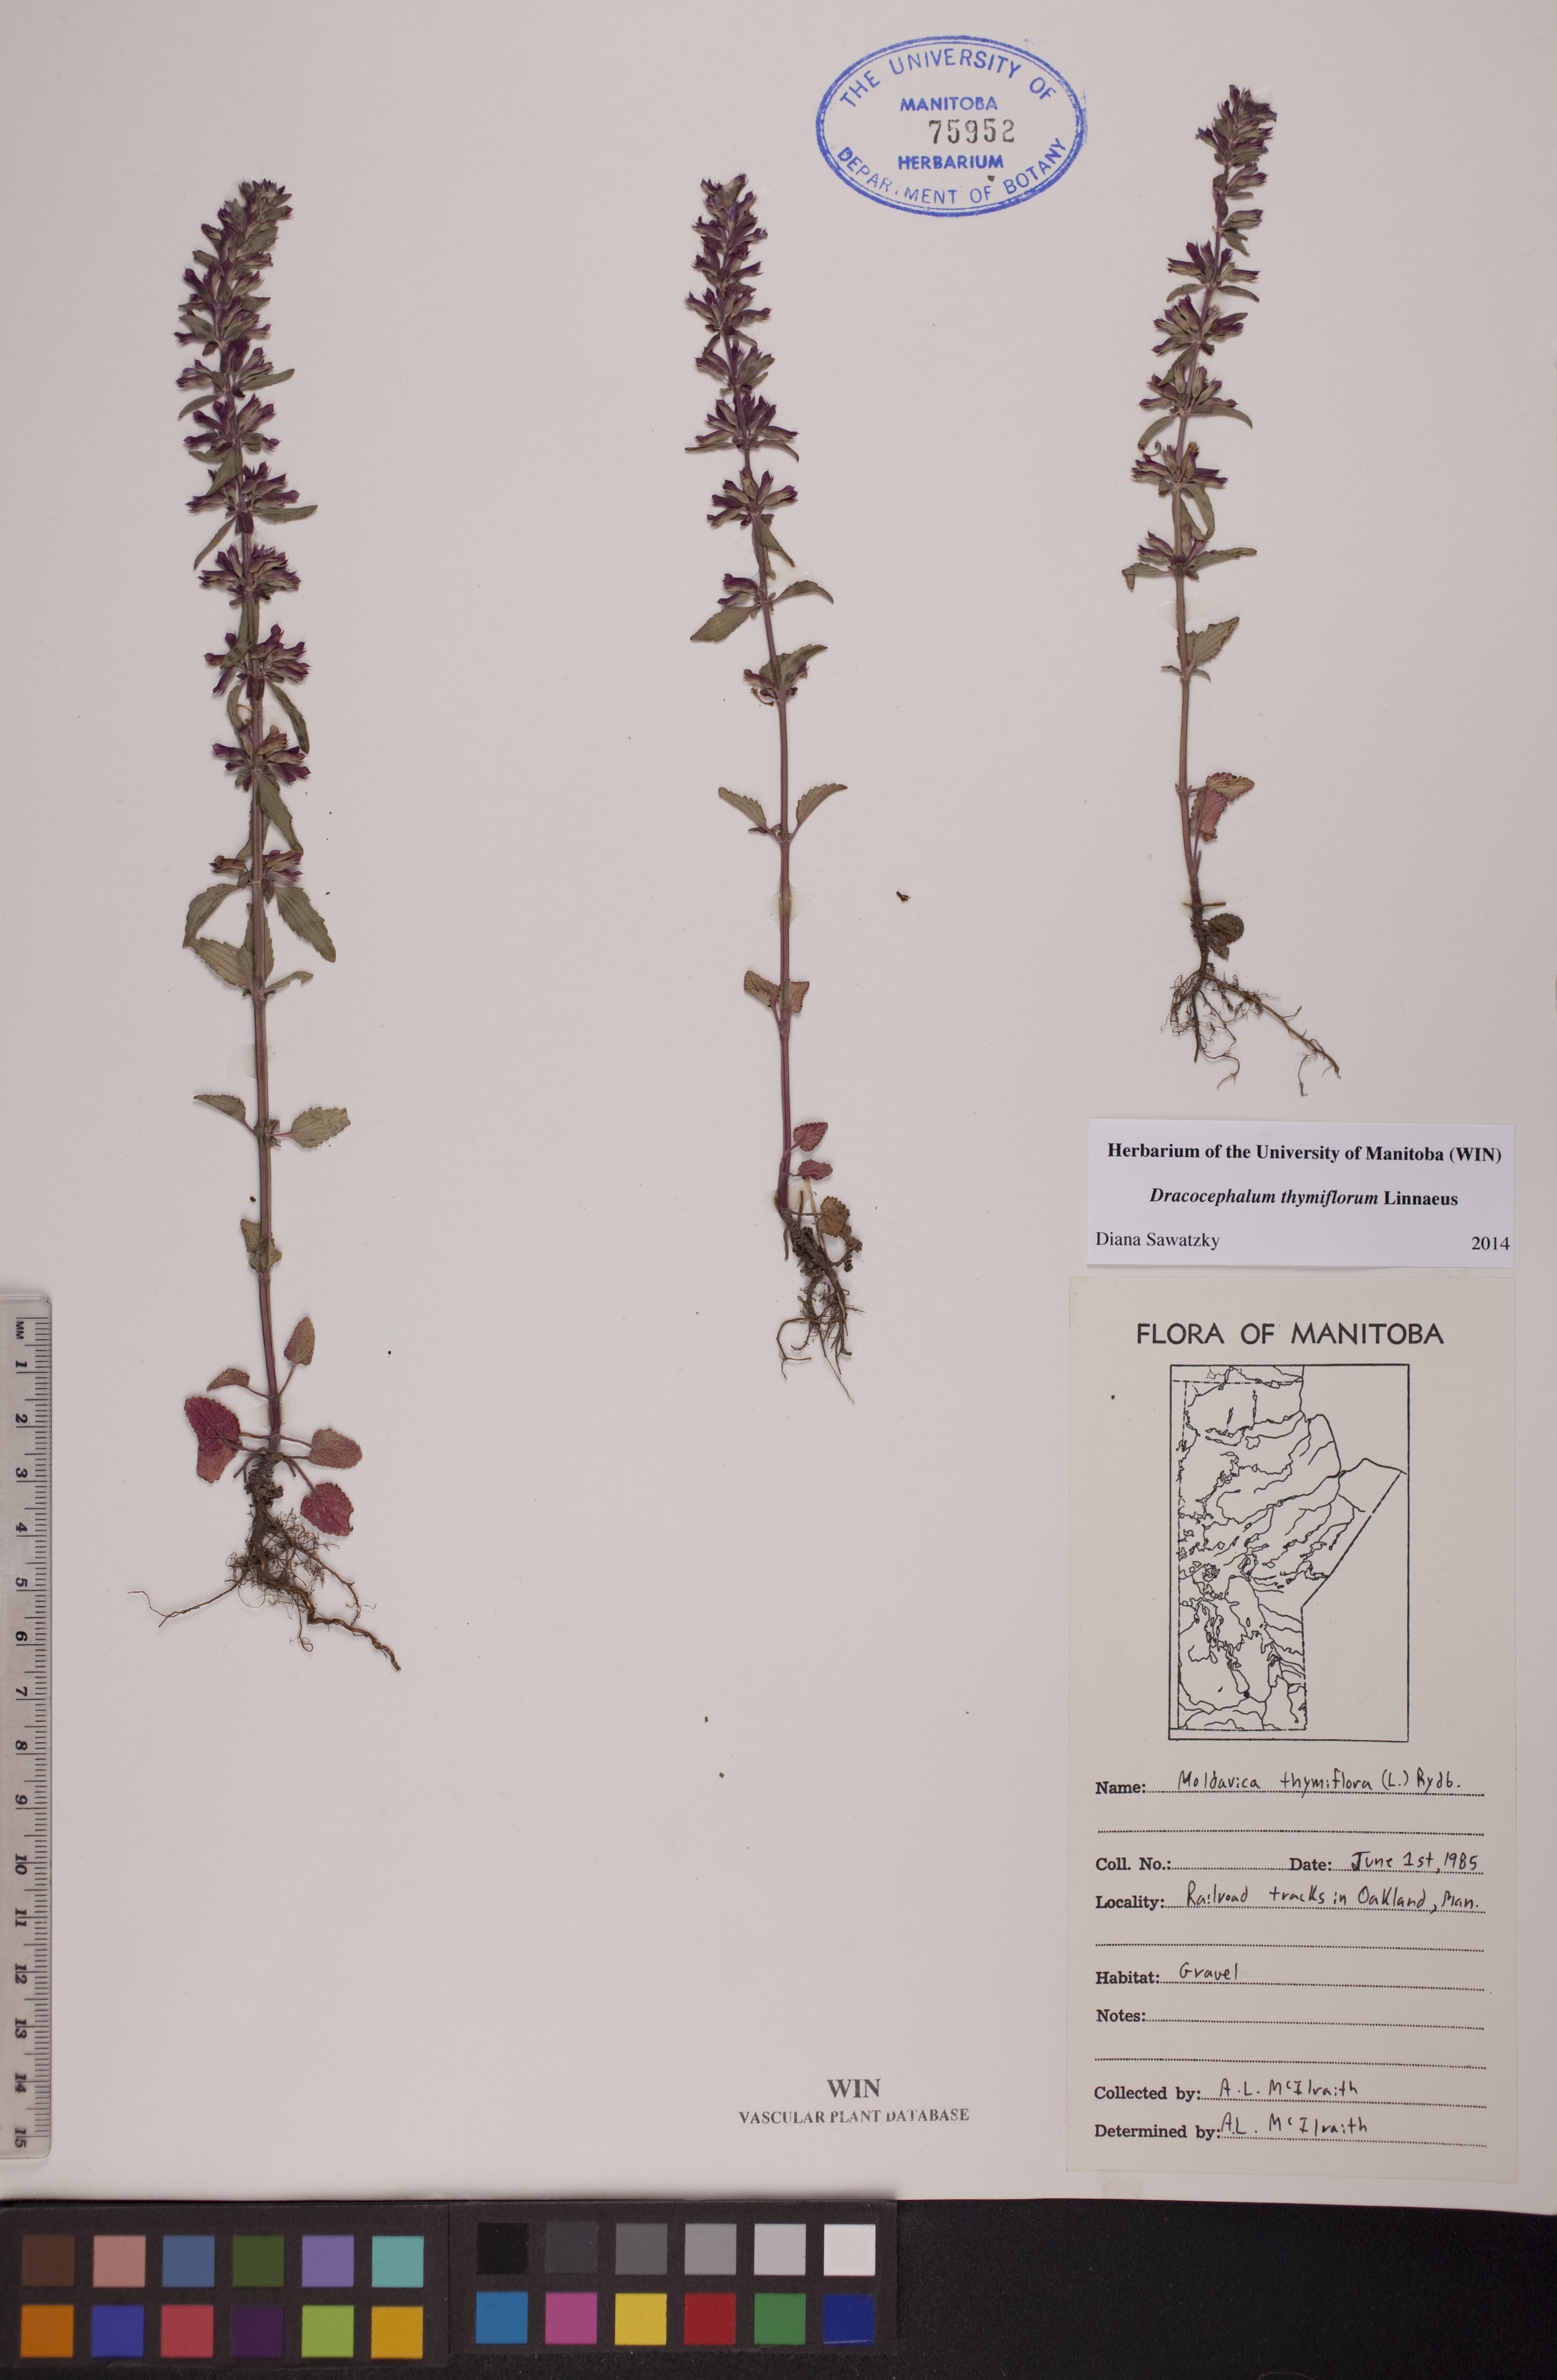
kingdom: Plantae
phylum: Tracheophyta
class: Magnoliopsida
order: Lamiales
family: Lamiaceae
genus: Dracocephalum
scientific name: Dracocephalum thymiflorum
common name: Thymeleaf dragonhead
